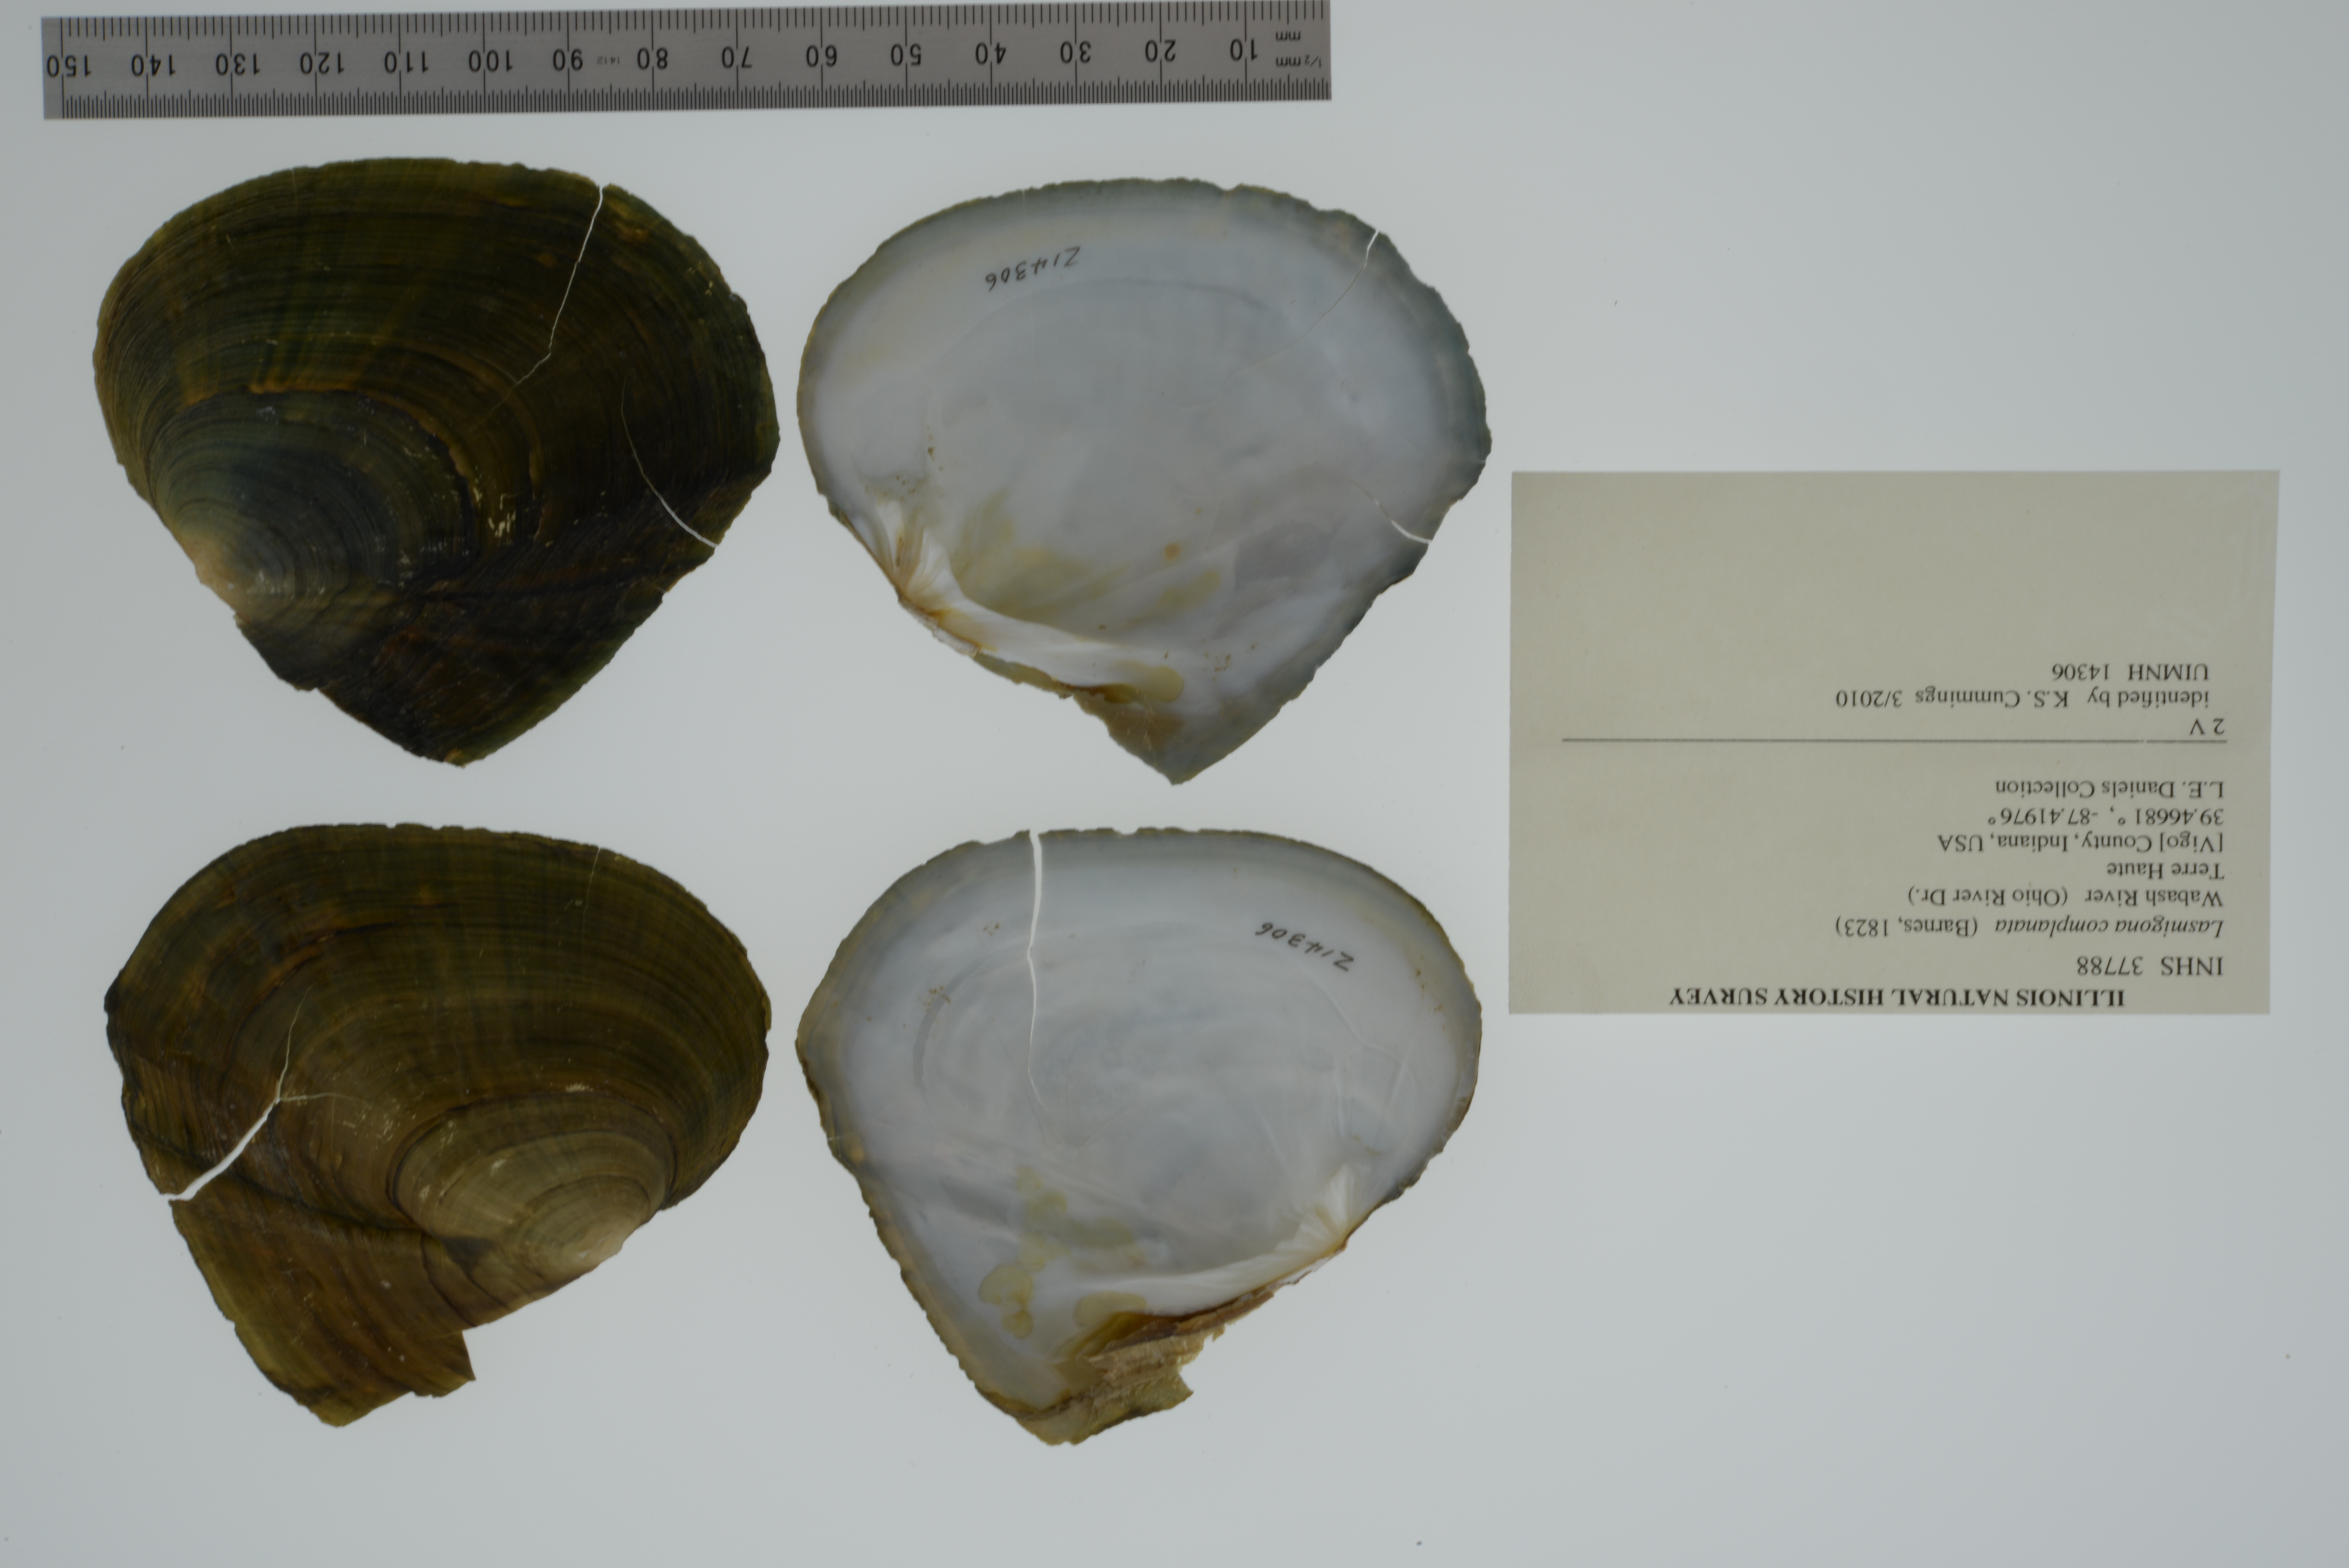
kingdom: Animalia
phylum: Mollusca
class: Bivalvia
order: Unionida
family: Unionidae
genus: Lasmigona
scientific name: Lasmigona complanata
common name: White heelsplitter
